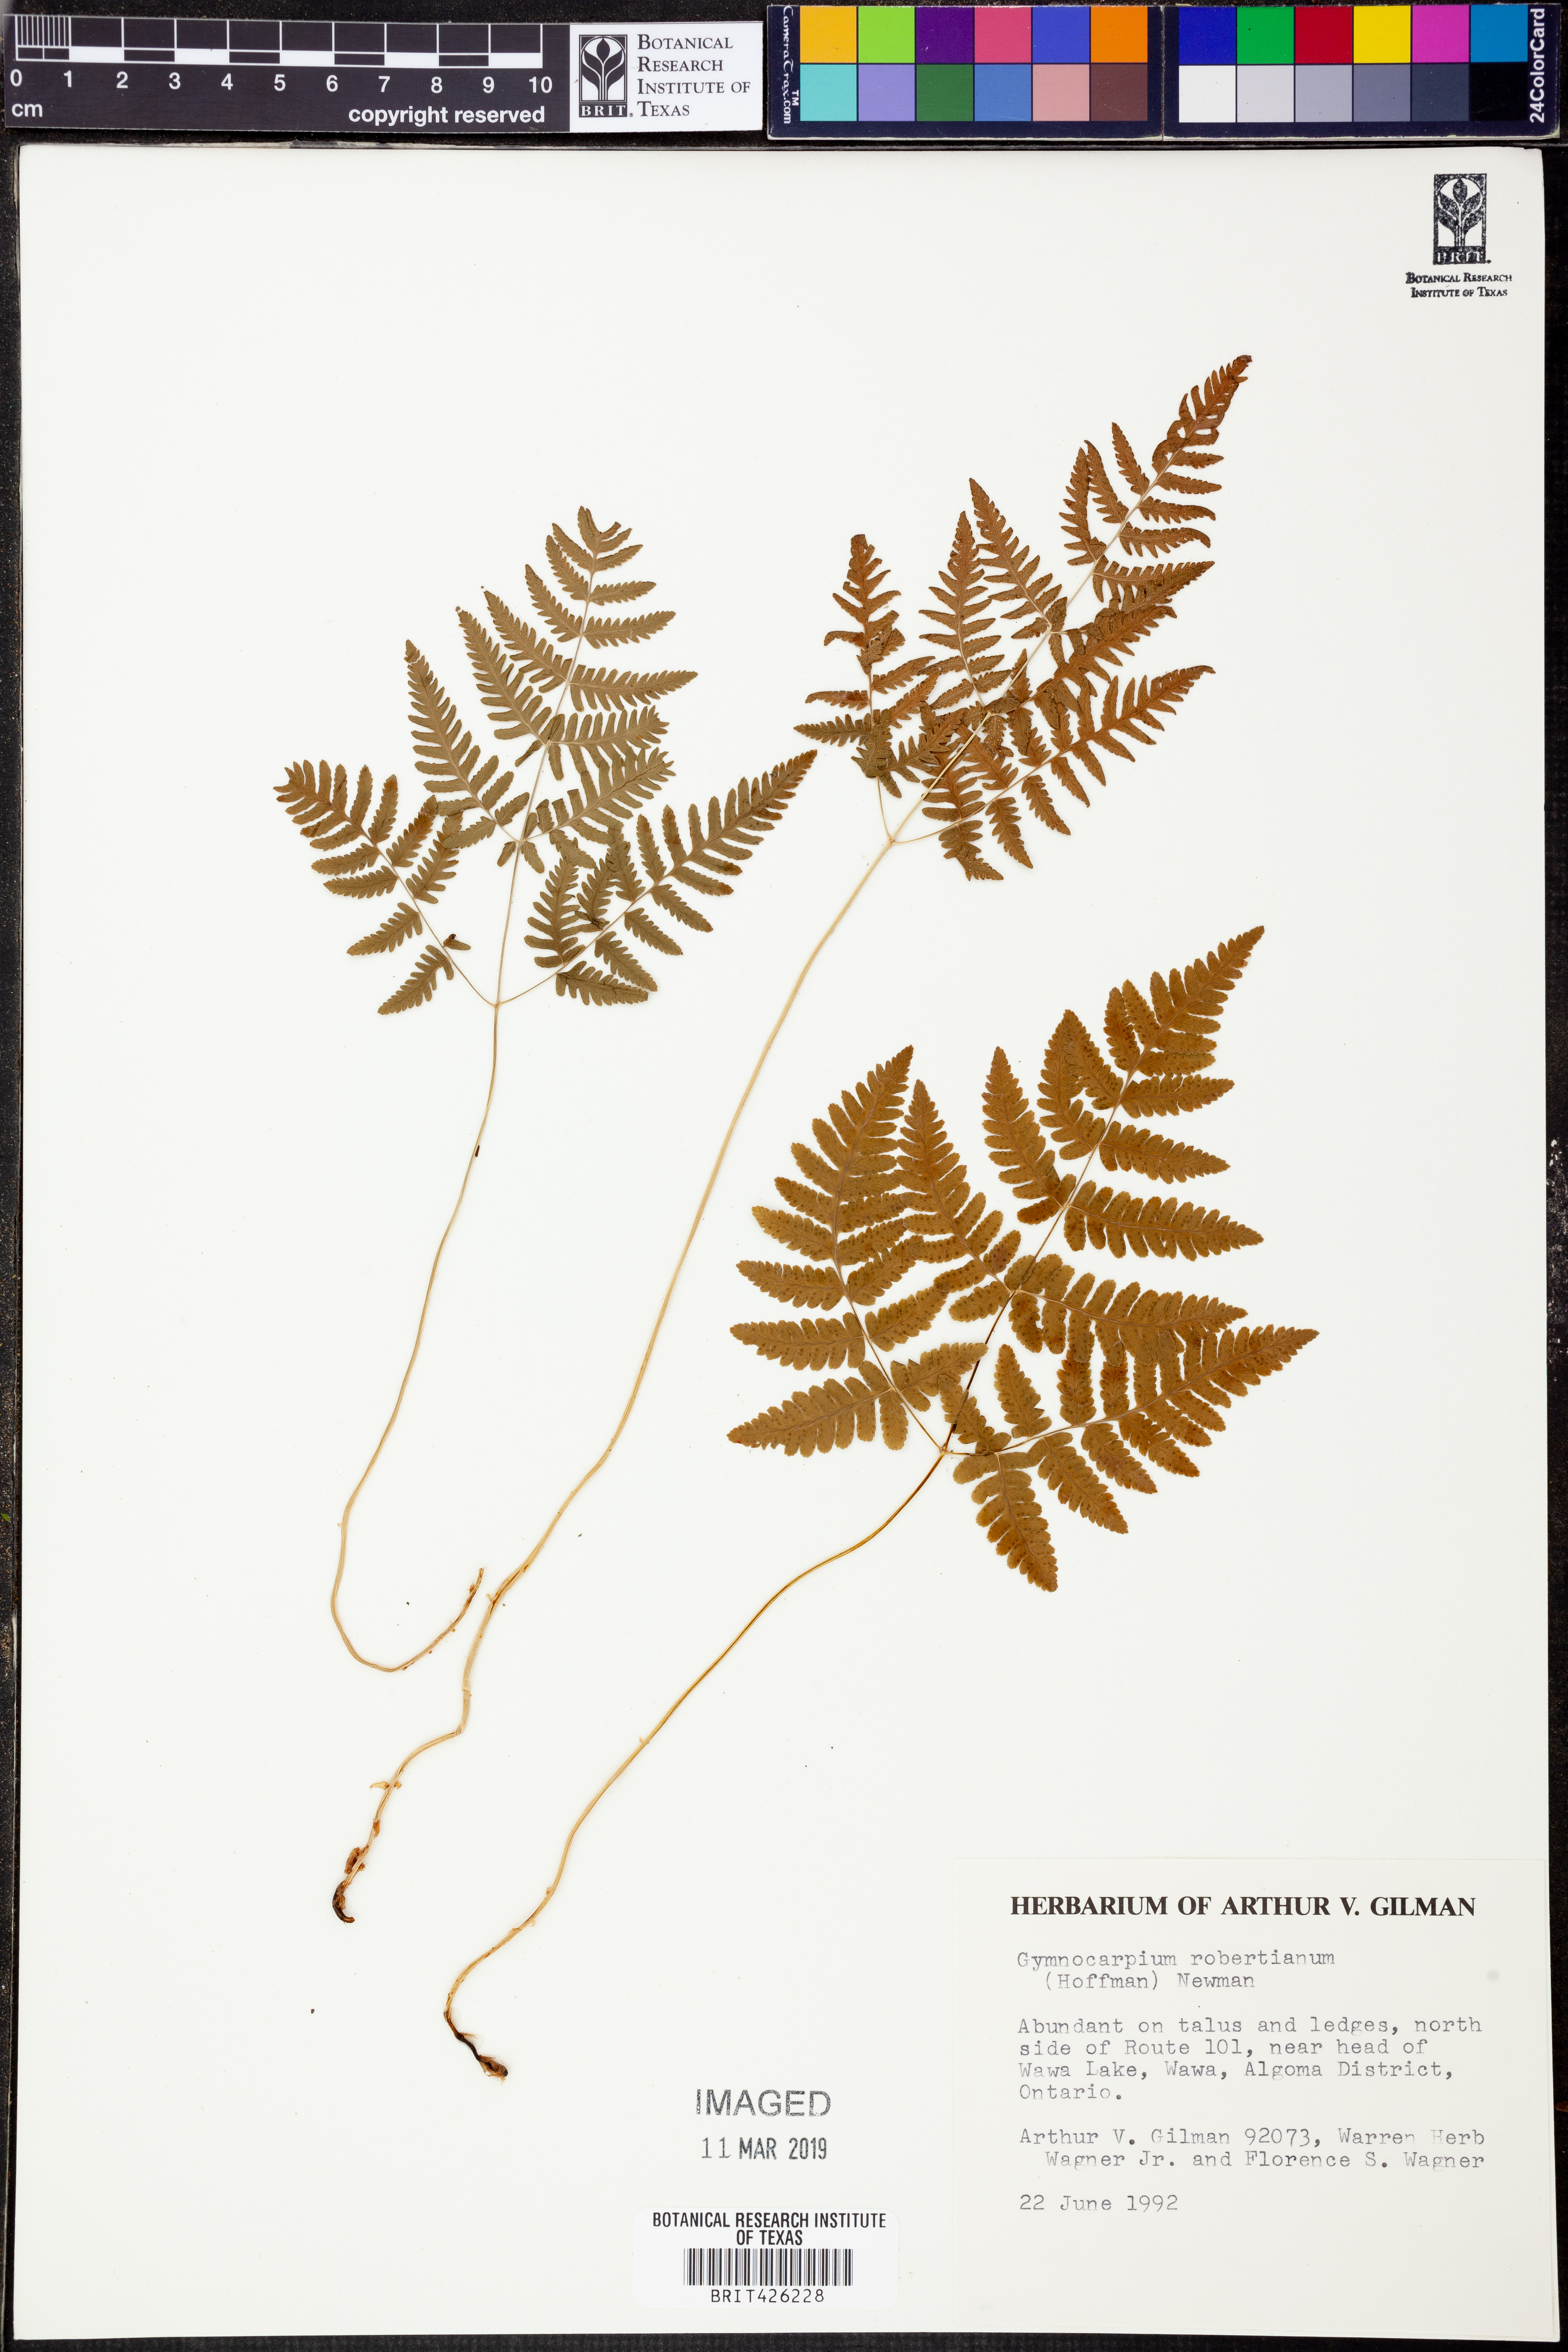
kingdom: Plantae
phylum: Tracheophyta
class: Polypodiopsida
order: Polypodiales
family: Cystopteridaceae
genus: Gymnocarpium
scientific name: Gymnocarpium robertianum
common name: Limestone fern
